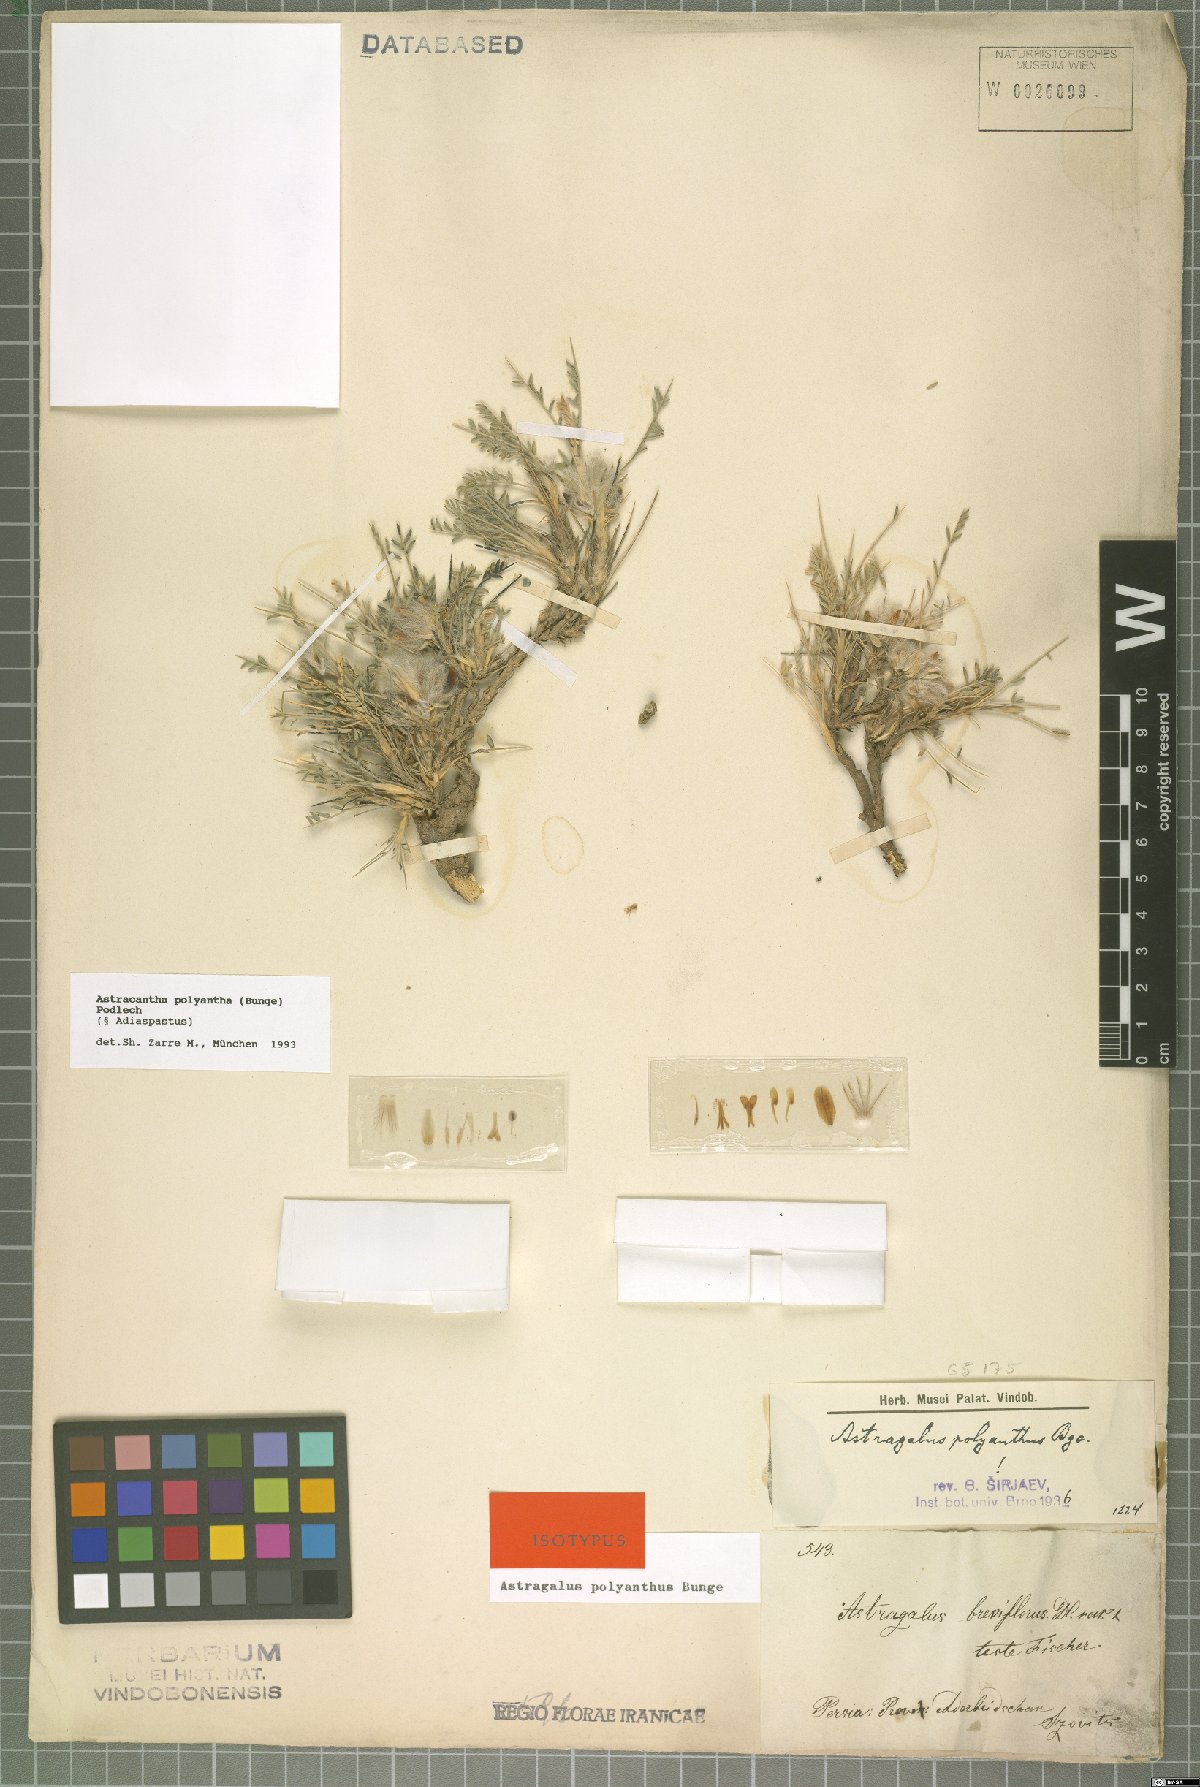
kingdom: Plantae
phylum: Tracheophyta
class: Magnoliopsida
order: Fabales
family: Fabaceae
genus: Astragalus
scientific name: Astragalus polyanthus
